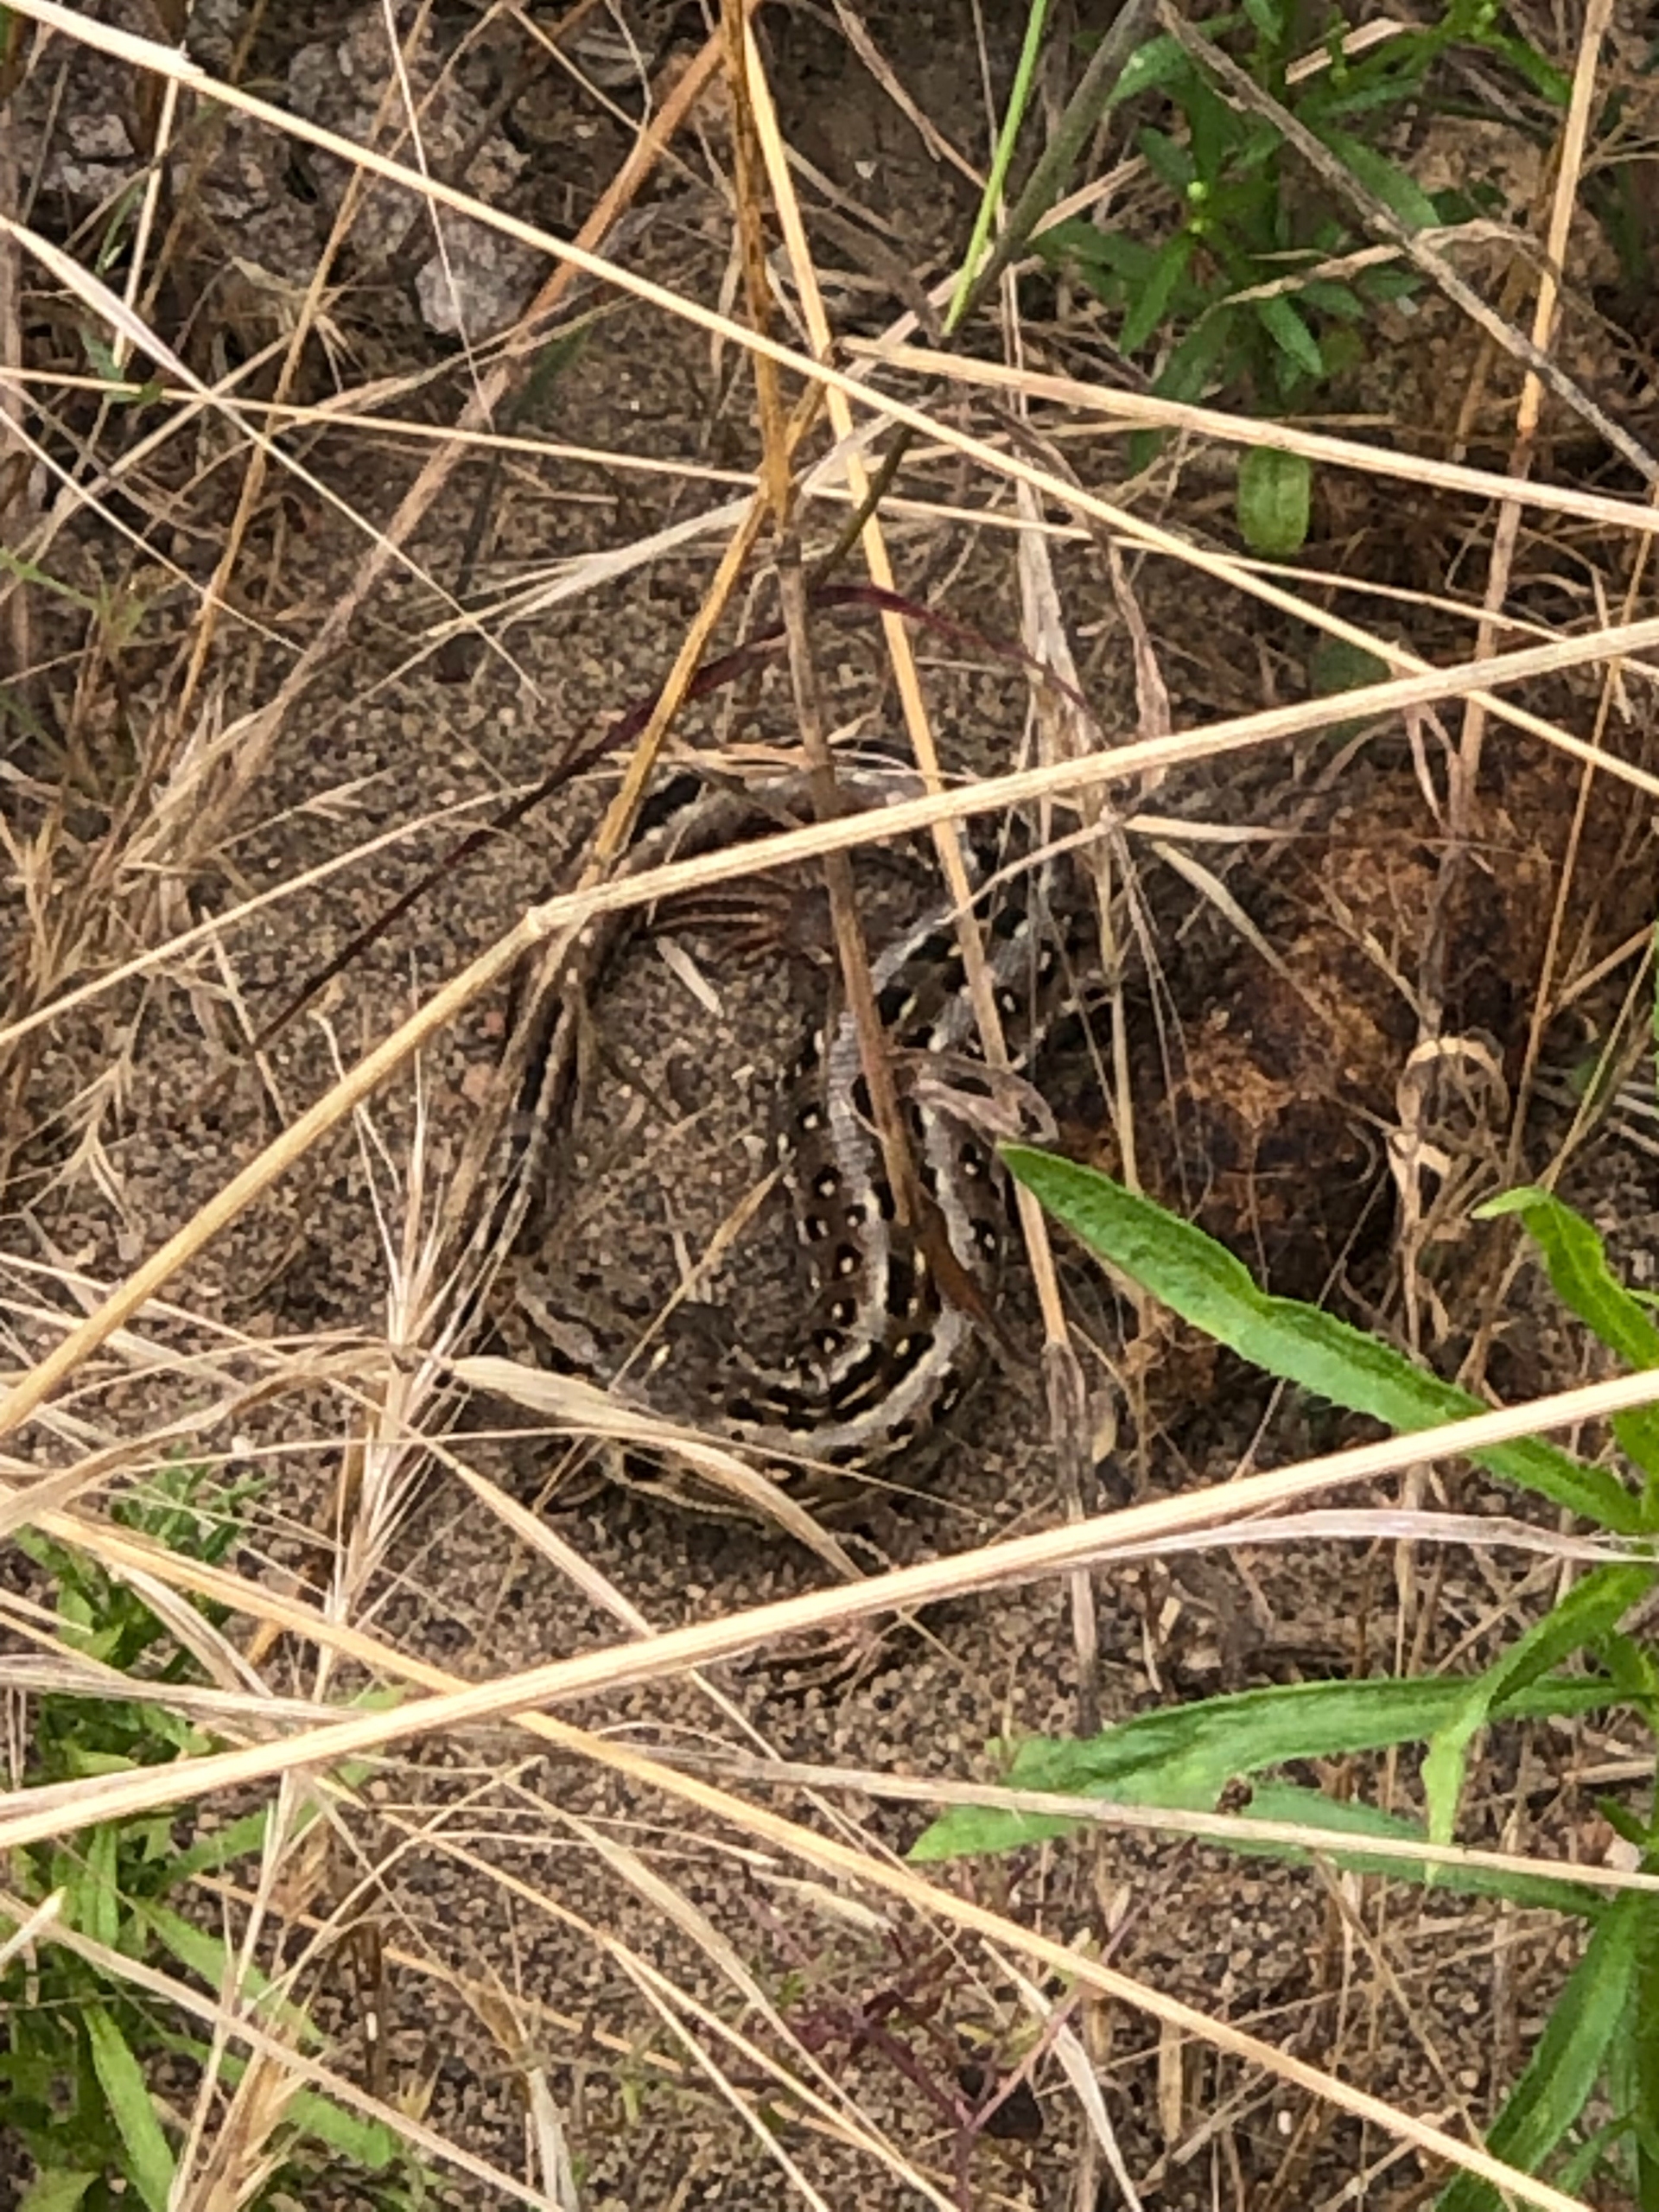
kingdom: Animalia
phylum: Chordata
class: Squamata
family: Lacertidae
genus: Lacerta
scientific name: Lacerta agilis
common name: Markfirben
